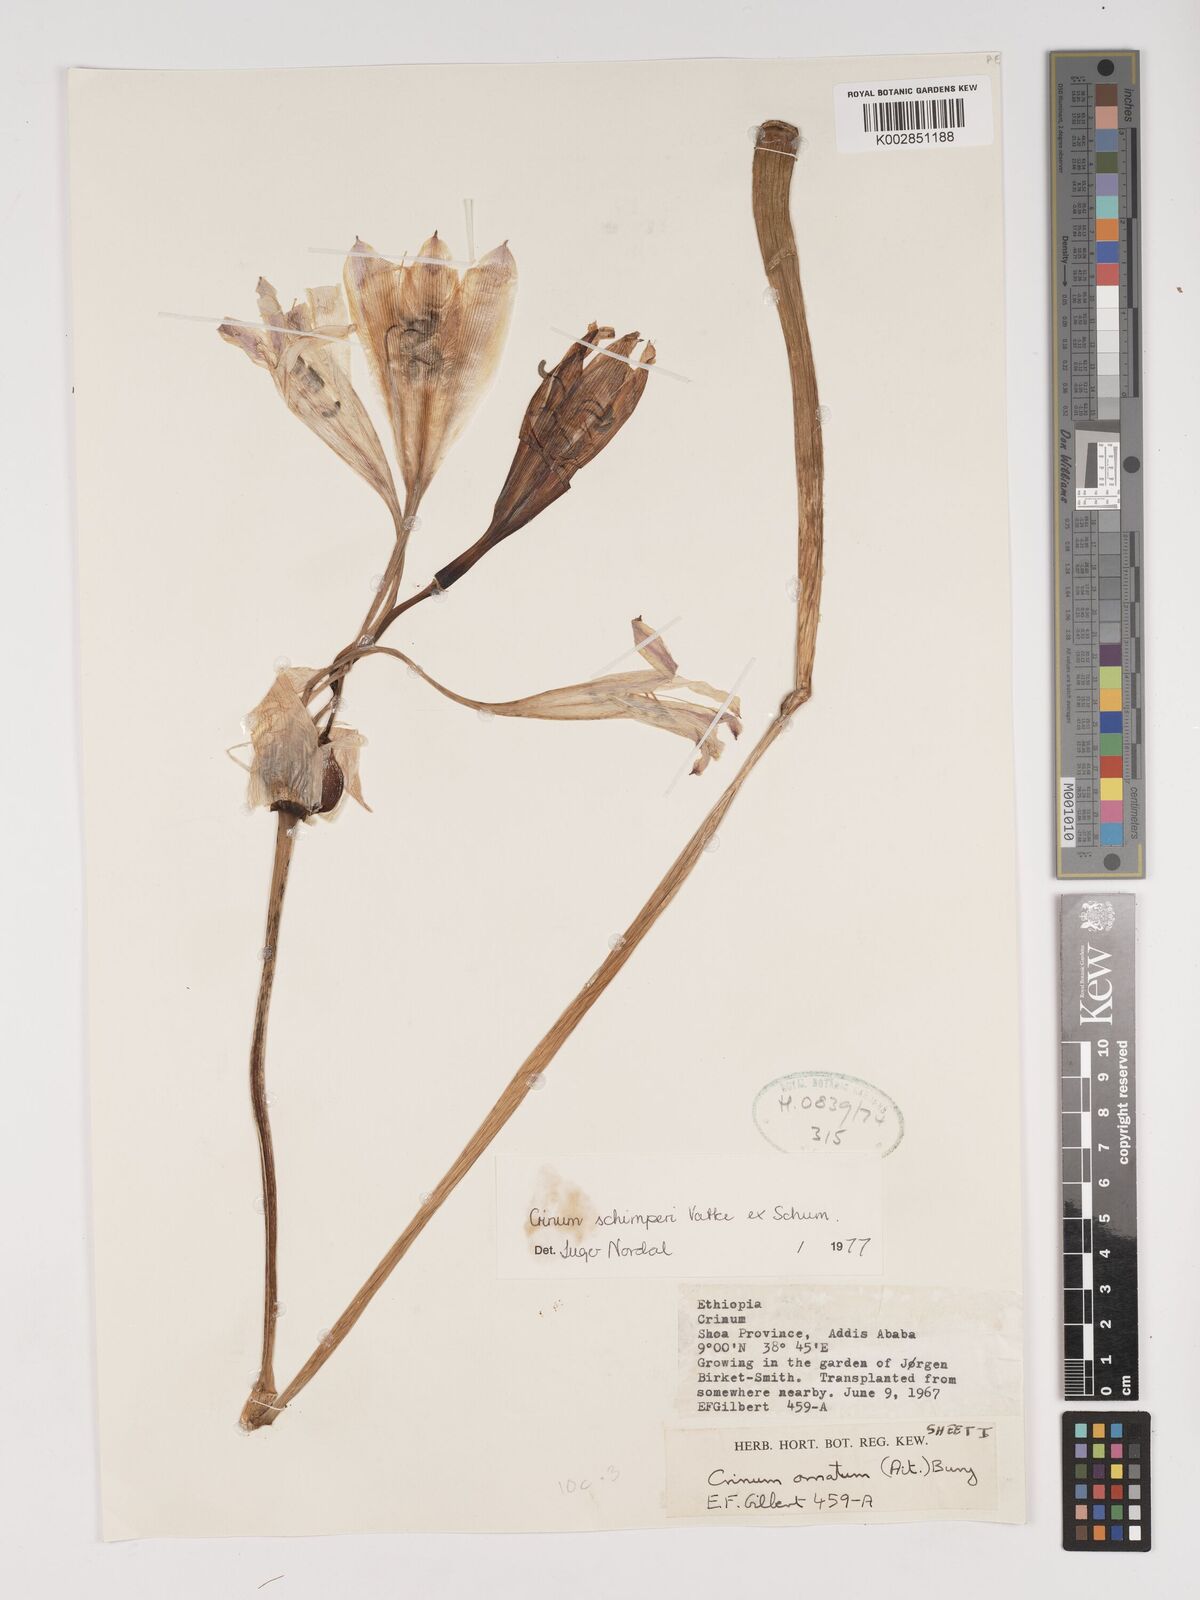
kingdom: Plantae
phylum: Tracheophyta
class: Liliopsida
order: Asparagales
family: Amaryllidaceae
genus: Crinum
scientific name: Crinum abyssinicum
